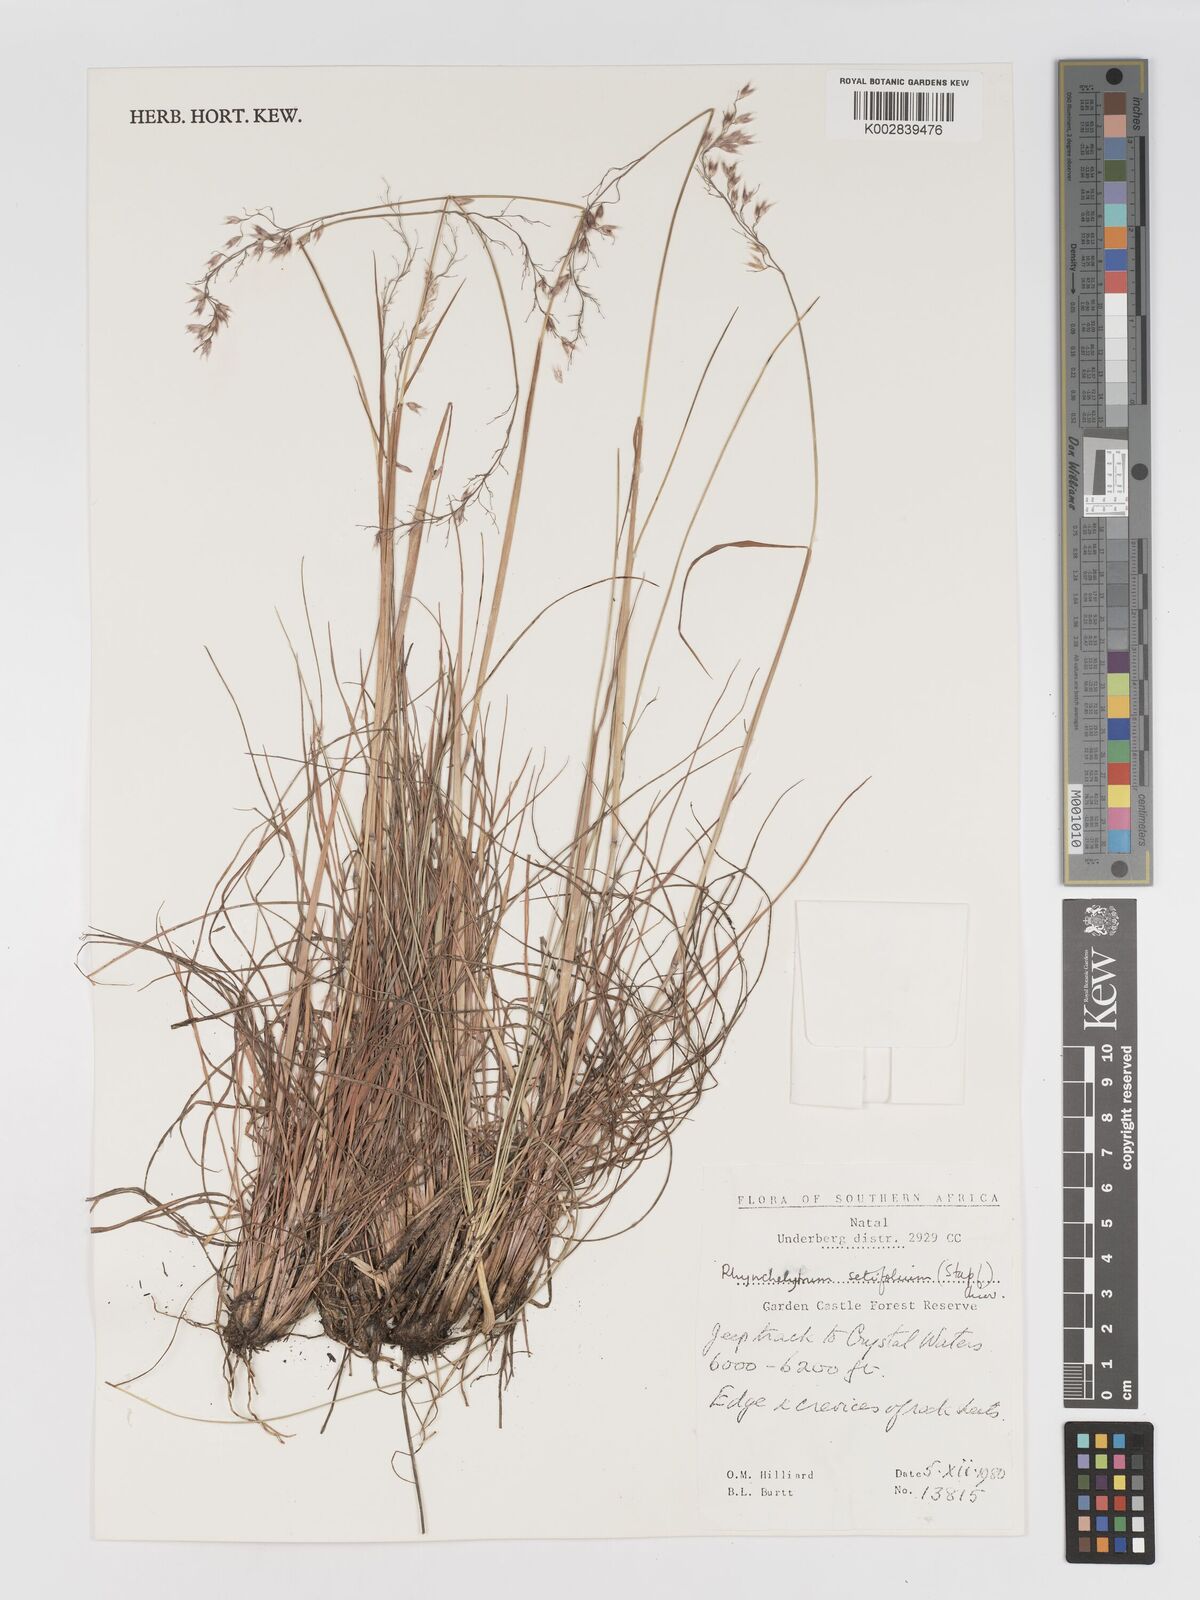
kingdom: Plantae
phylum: Tracheophyta
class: Liliopsida
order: Poales
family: Poaceae
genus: Melinis
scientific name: Melinis nerviglumis
